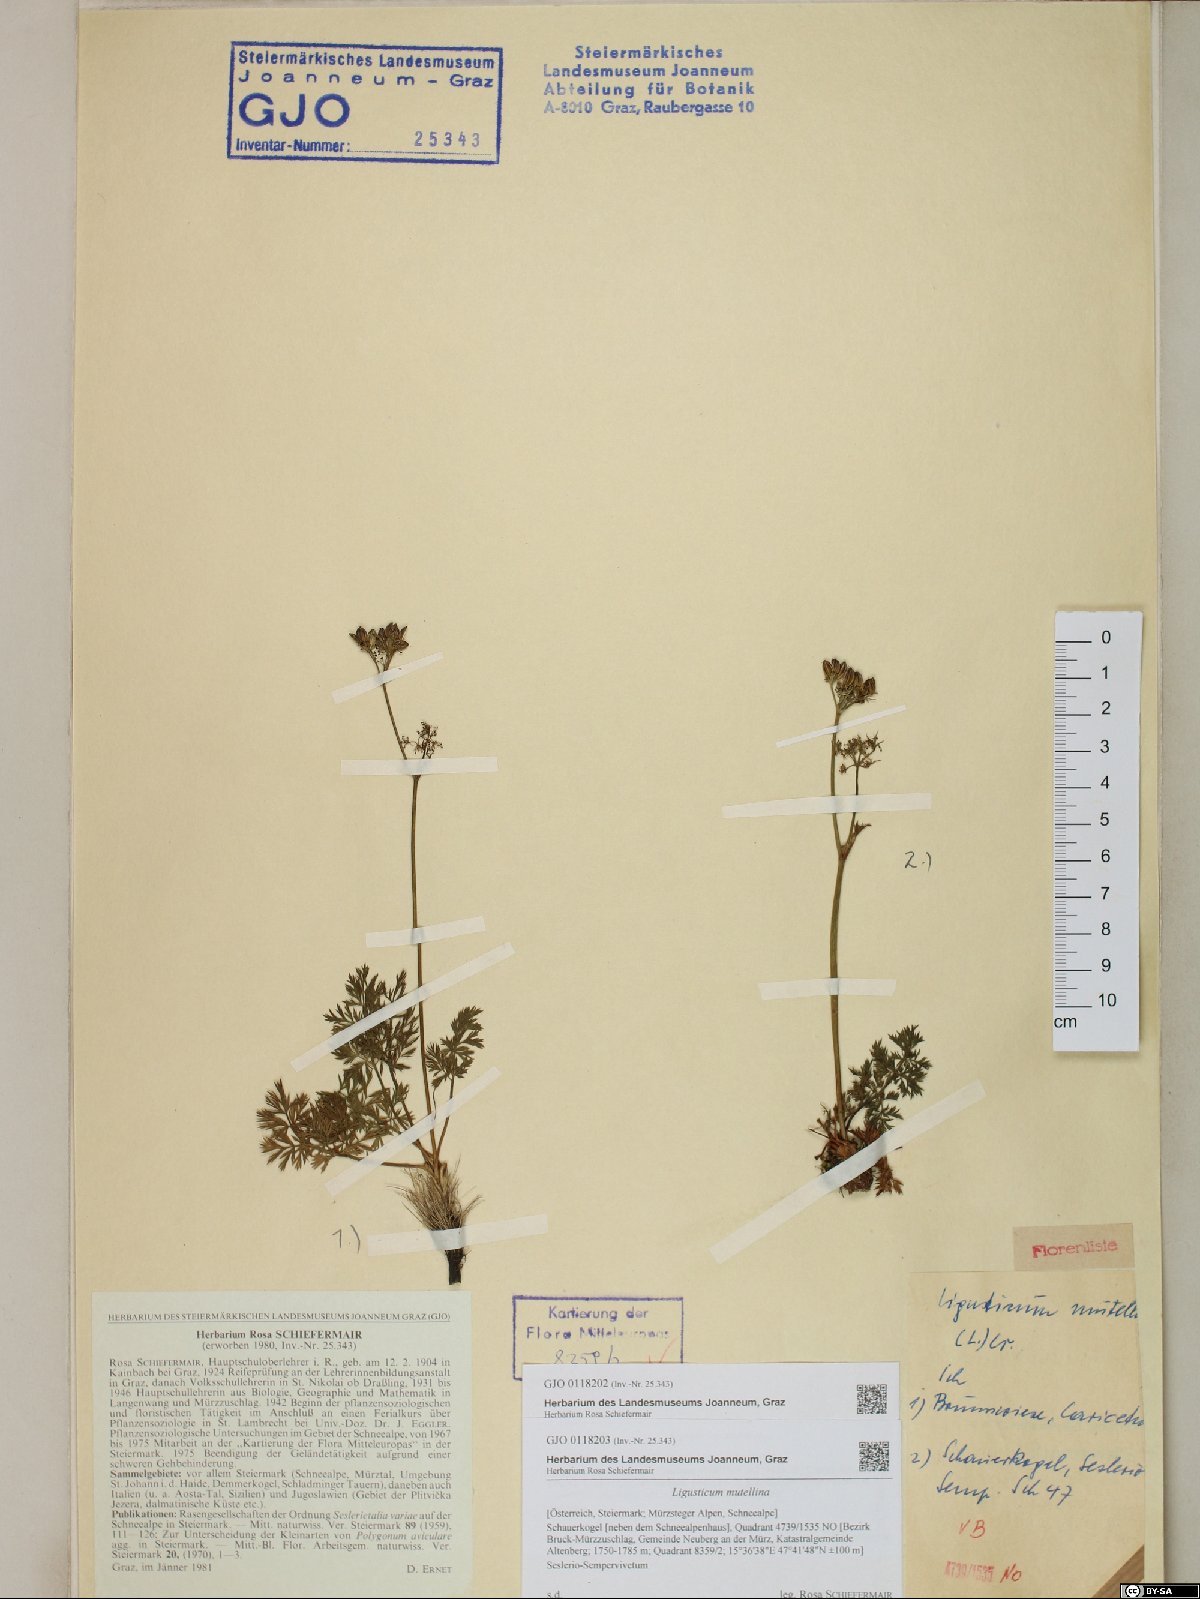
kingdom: Plantae
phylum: Tracheophyta
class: Magnoliopsida
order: Apiales
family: Apiaceae
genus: Mutellina
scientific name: Mutellina adonidifolia
